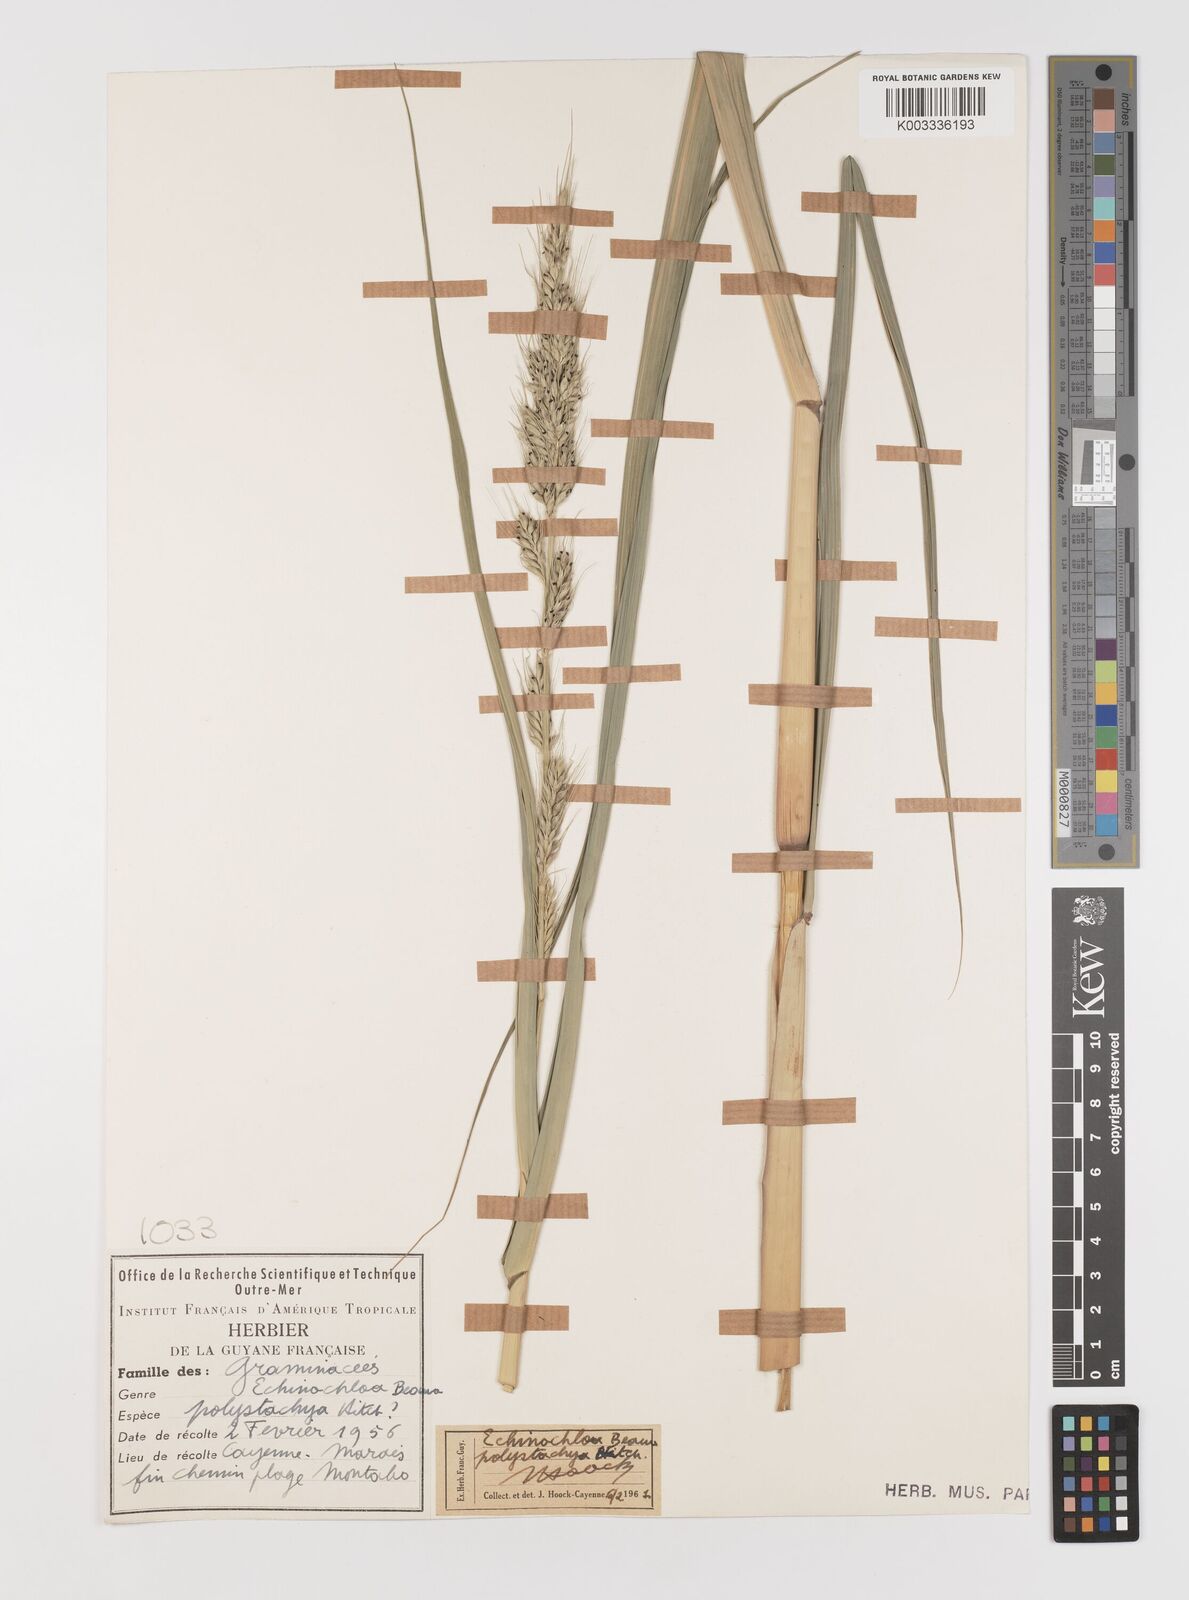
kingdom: Plantae
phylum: Tracheophyta
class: Liliopsida
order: Poales
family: Poaceae
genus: Echinochloa
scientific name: Echinochloa polystachya
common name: Creeping river grass
